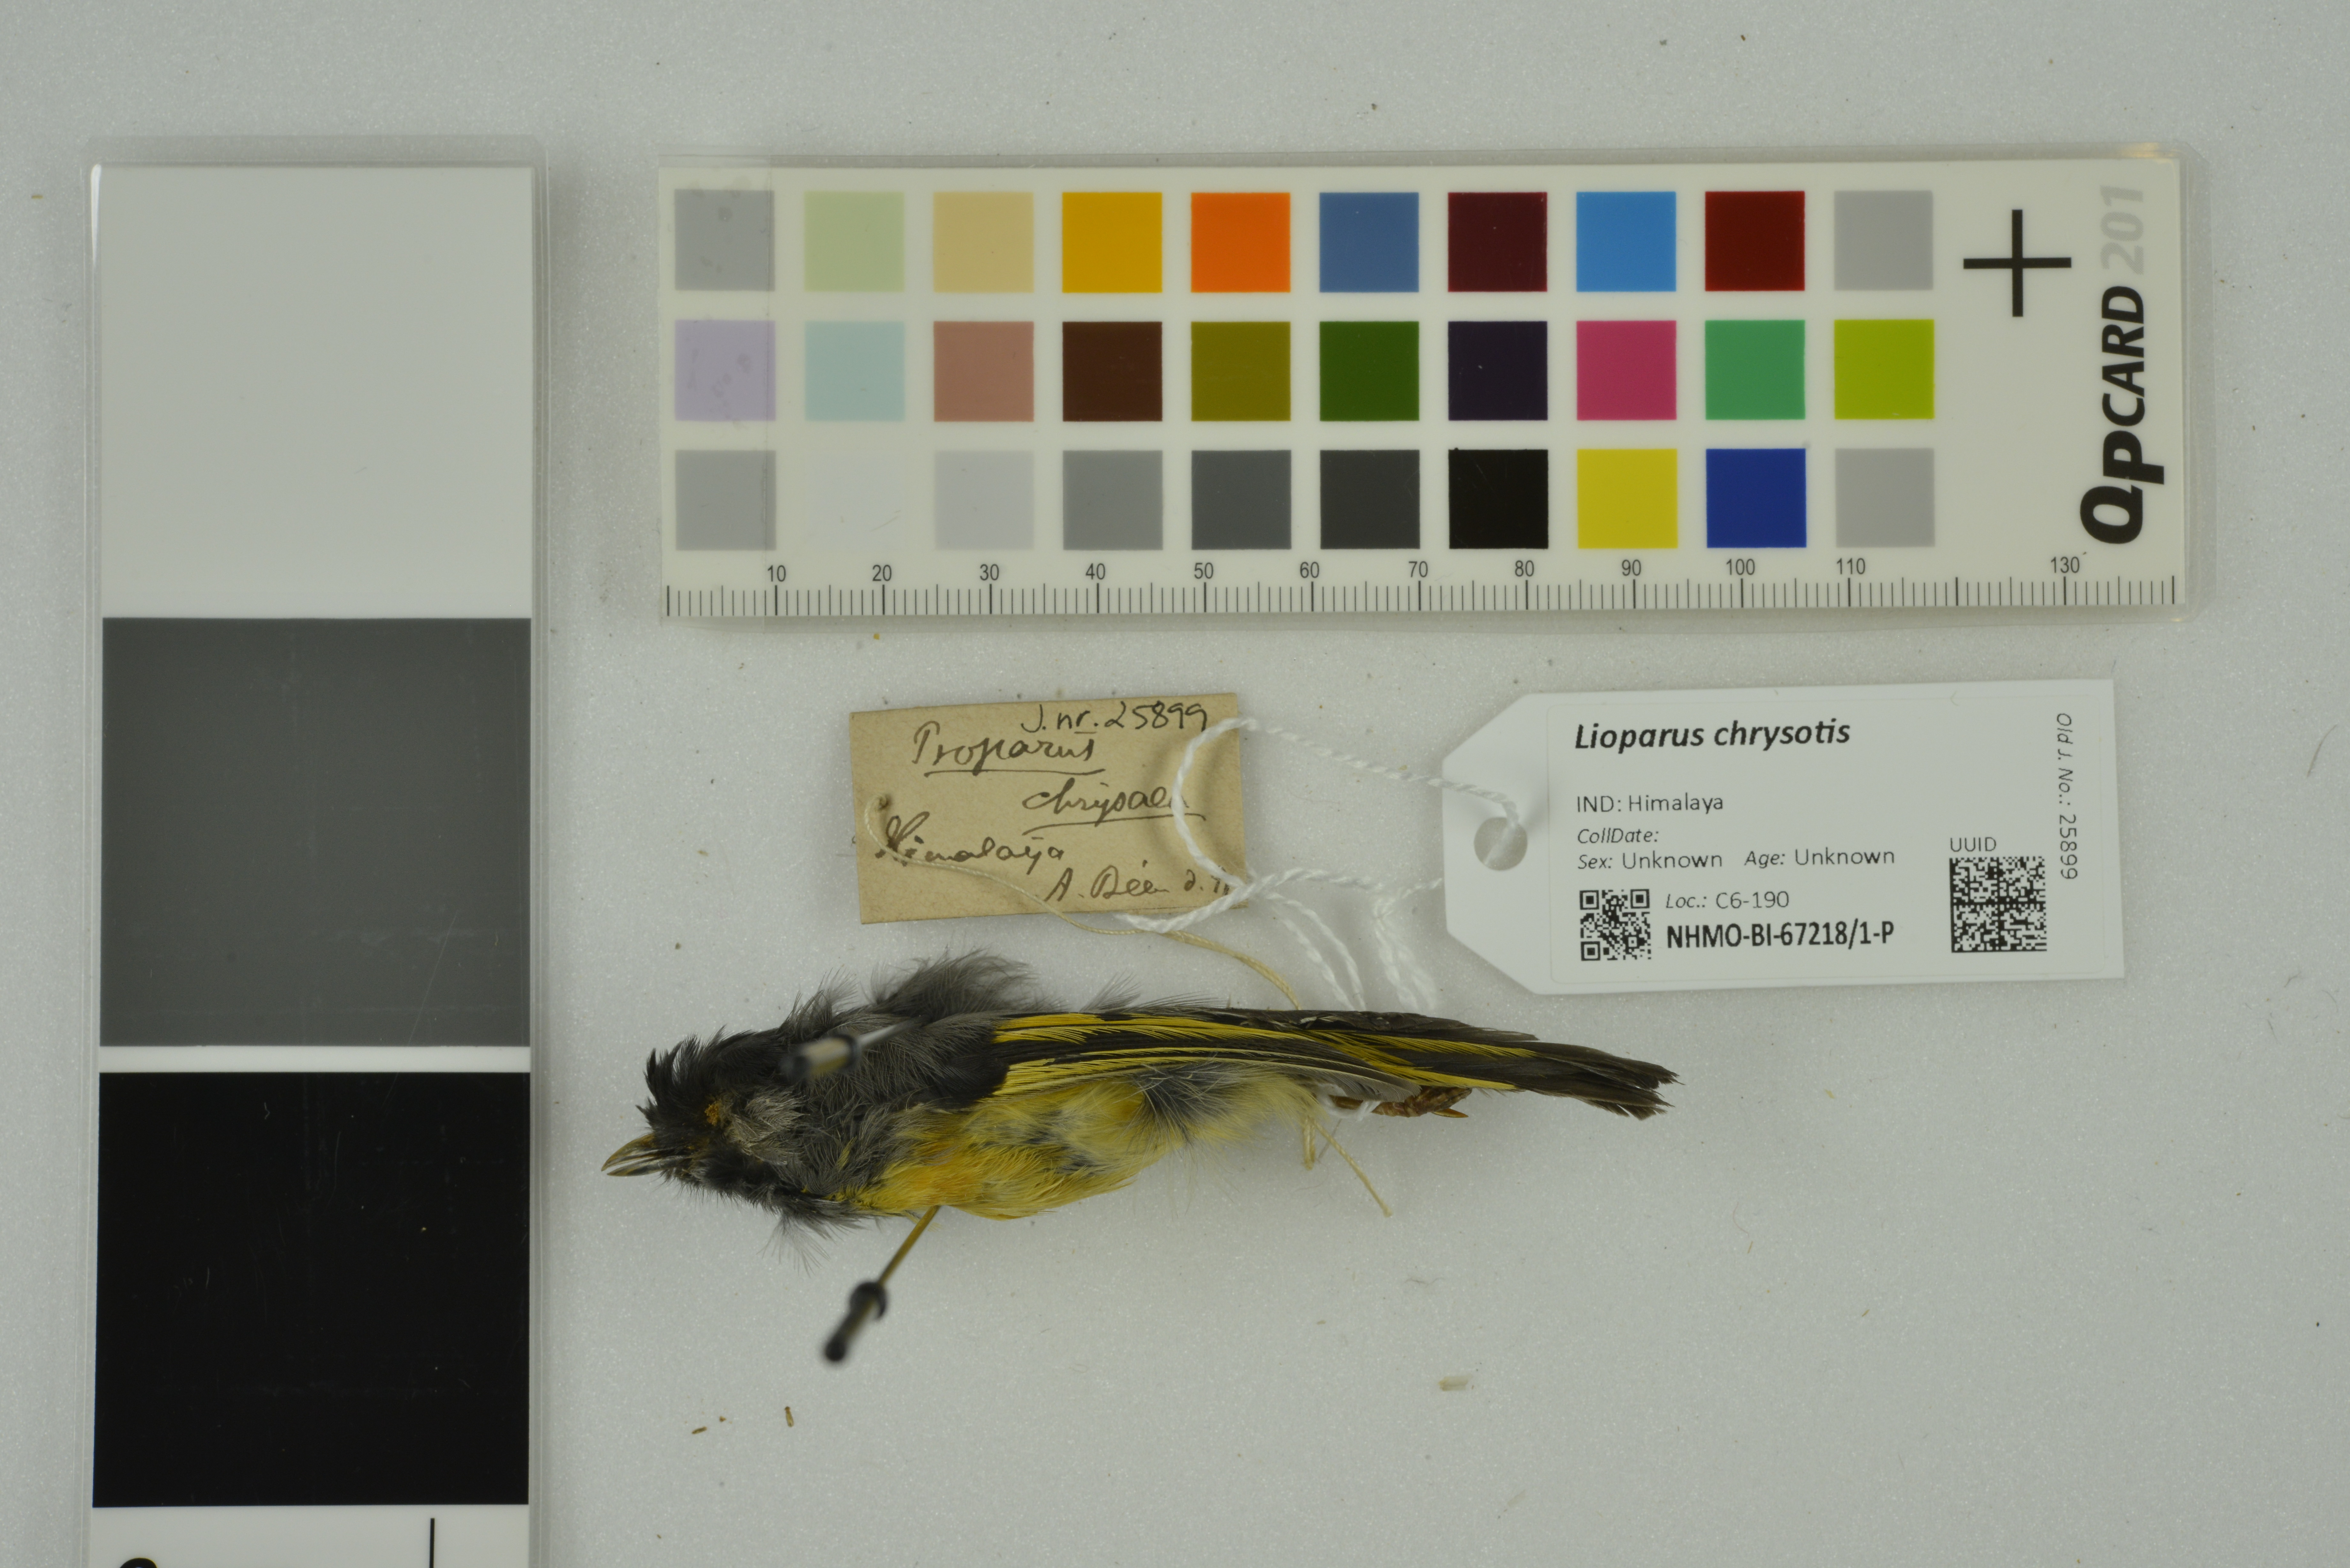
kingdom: Animalia
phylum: Chordata
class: Aves
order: Passeriformes
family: Sylviidae
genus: Lioparus
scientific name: Lioparus chrysotis
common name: Golden-breasted fulvetta
